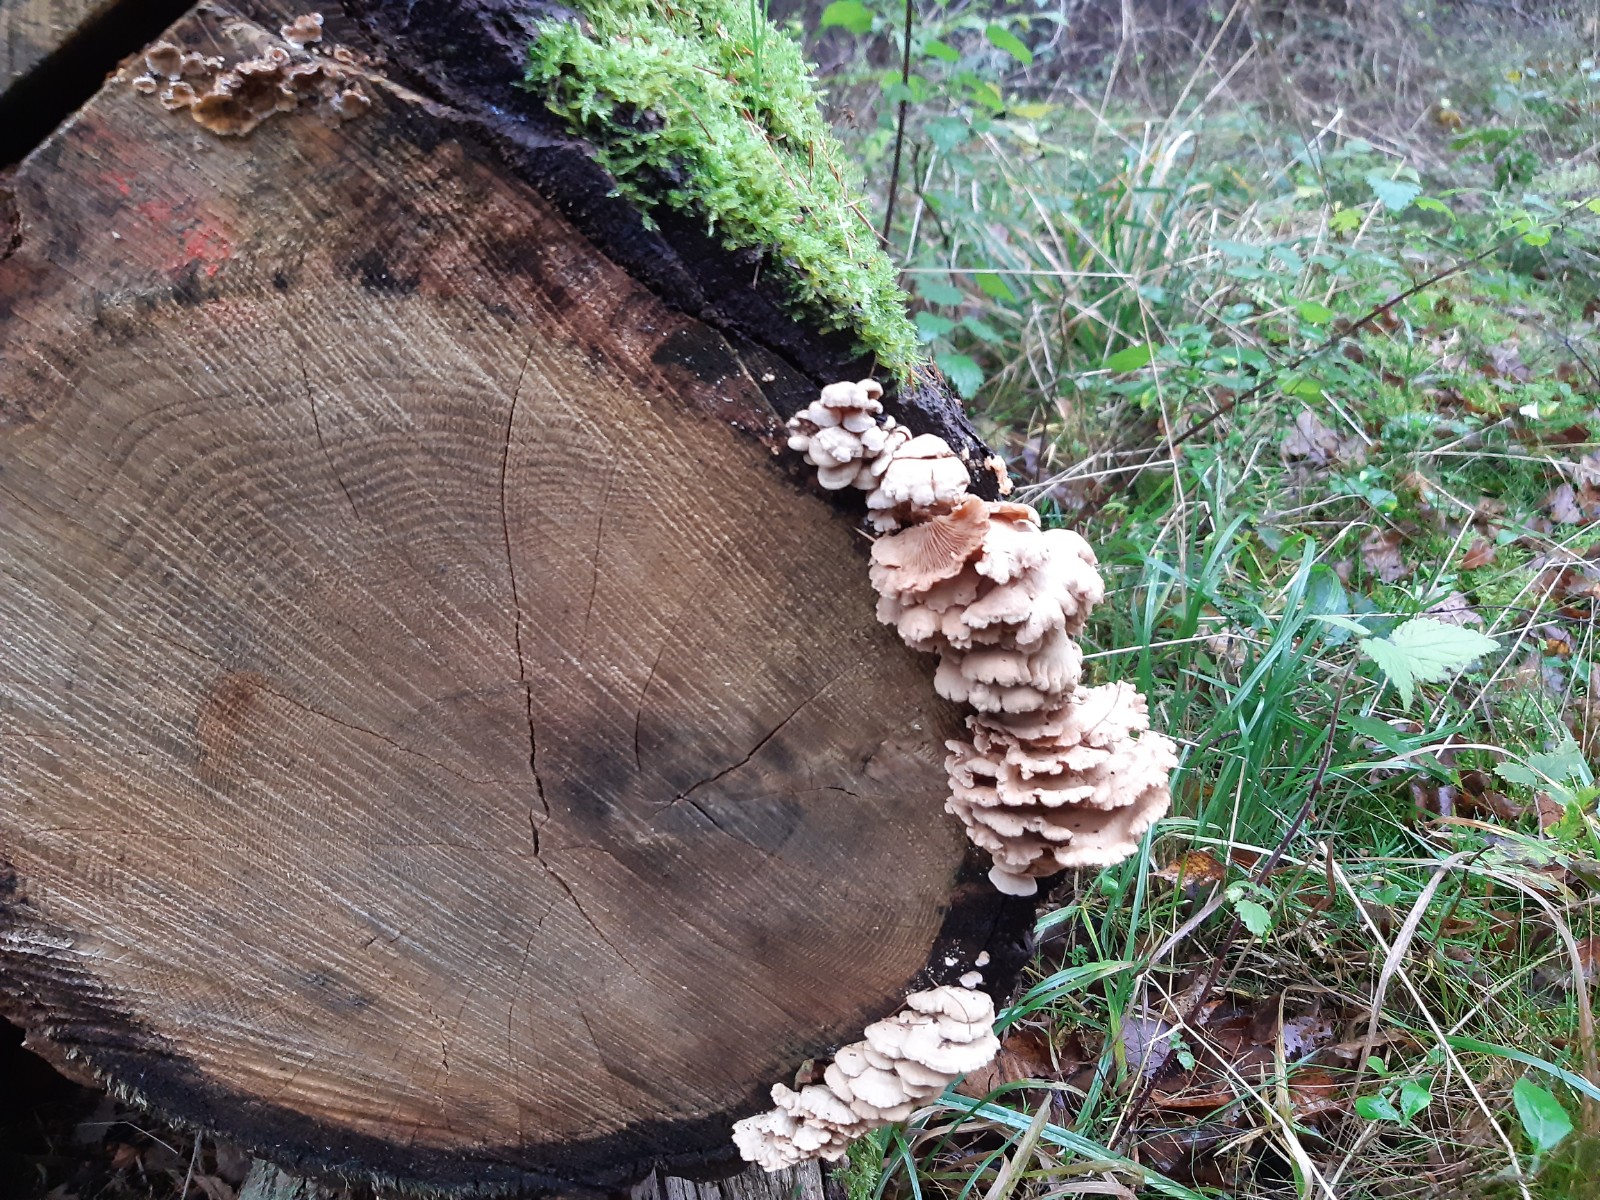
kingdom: Fungi
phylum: Basidiomycota
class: Agaricomycetes
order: Agaricales
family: Mycenaceae
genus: Panellus
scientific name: Panellus stipticus
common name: kliddet epaulethat
